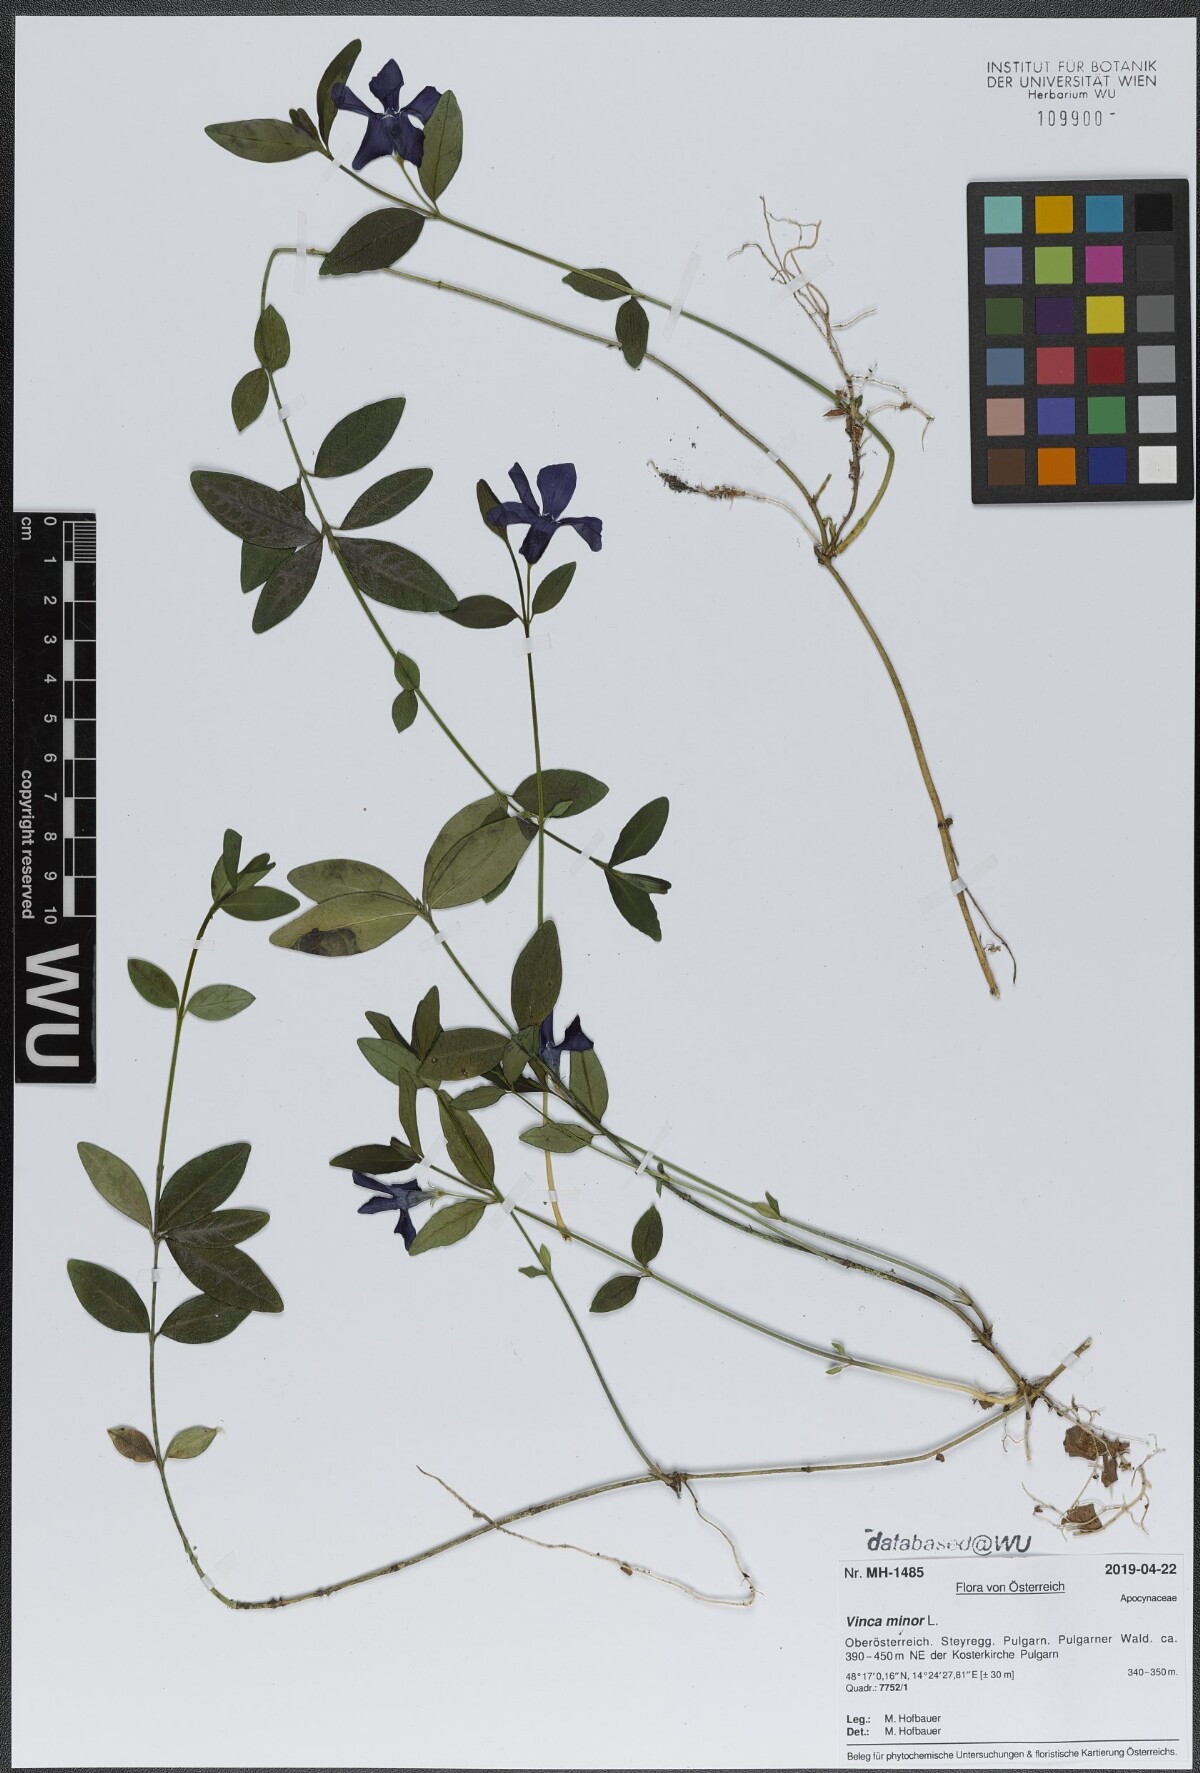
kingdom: Plantae
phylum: Tracheophyta
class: Magnoliopsida
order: Gentianales
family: Apocynaceae
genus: Vinca
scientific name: Vinca minor
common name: Lesser periwinkle
